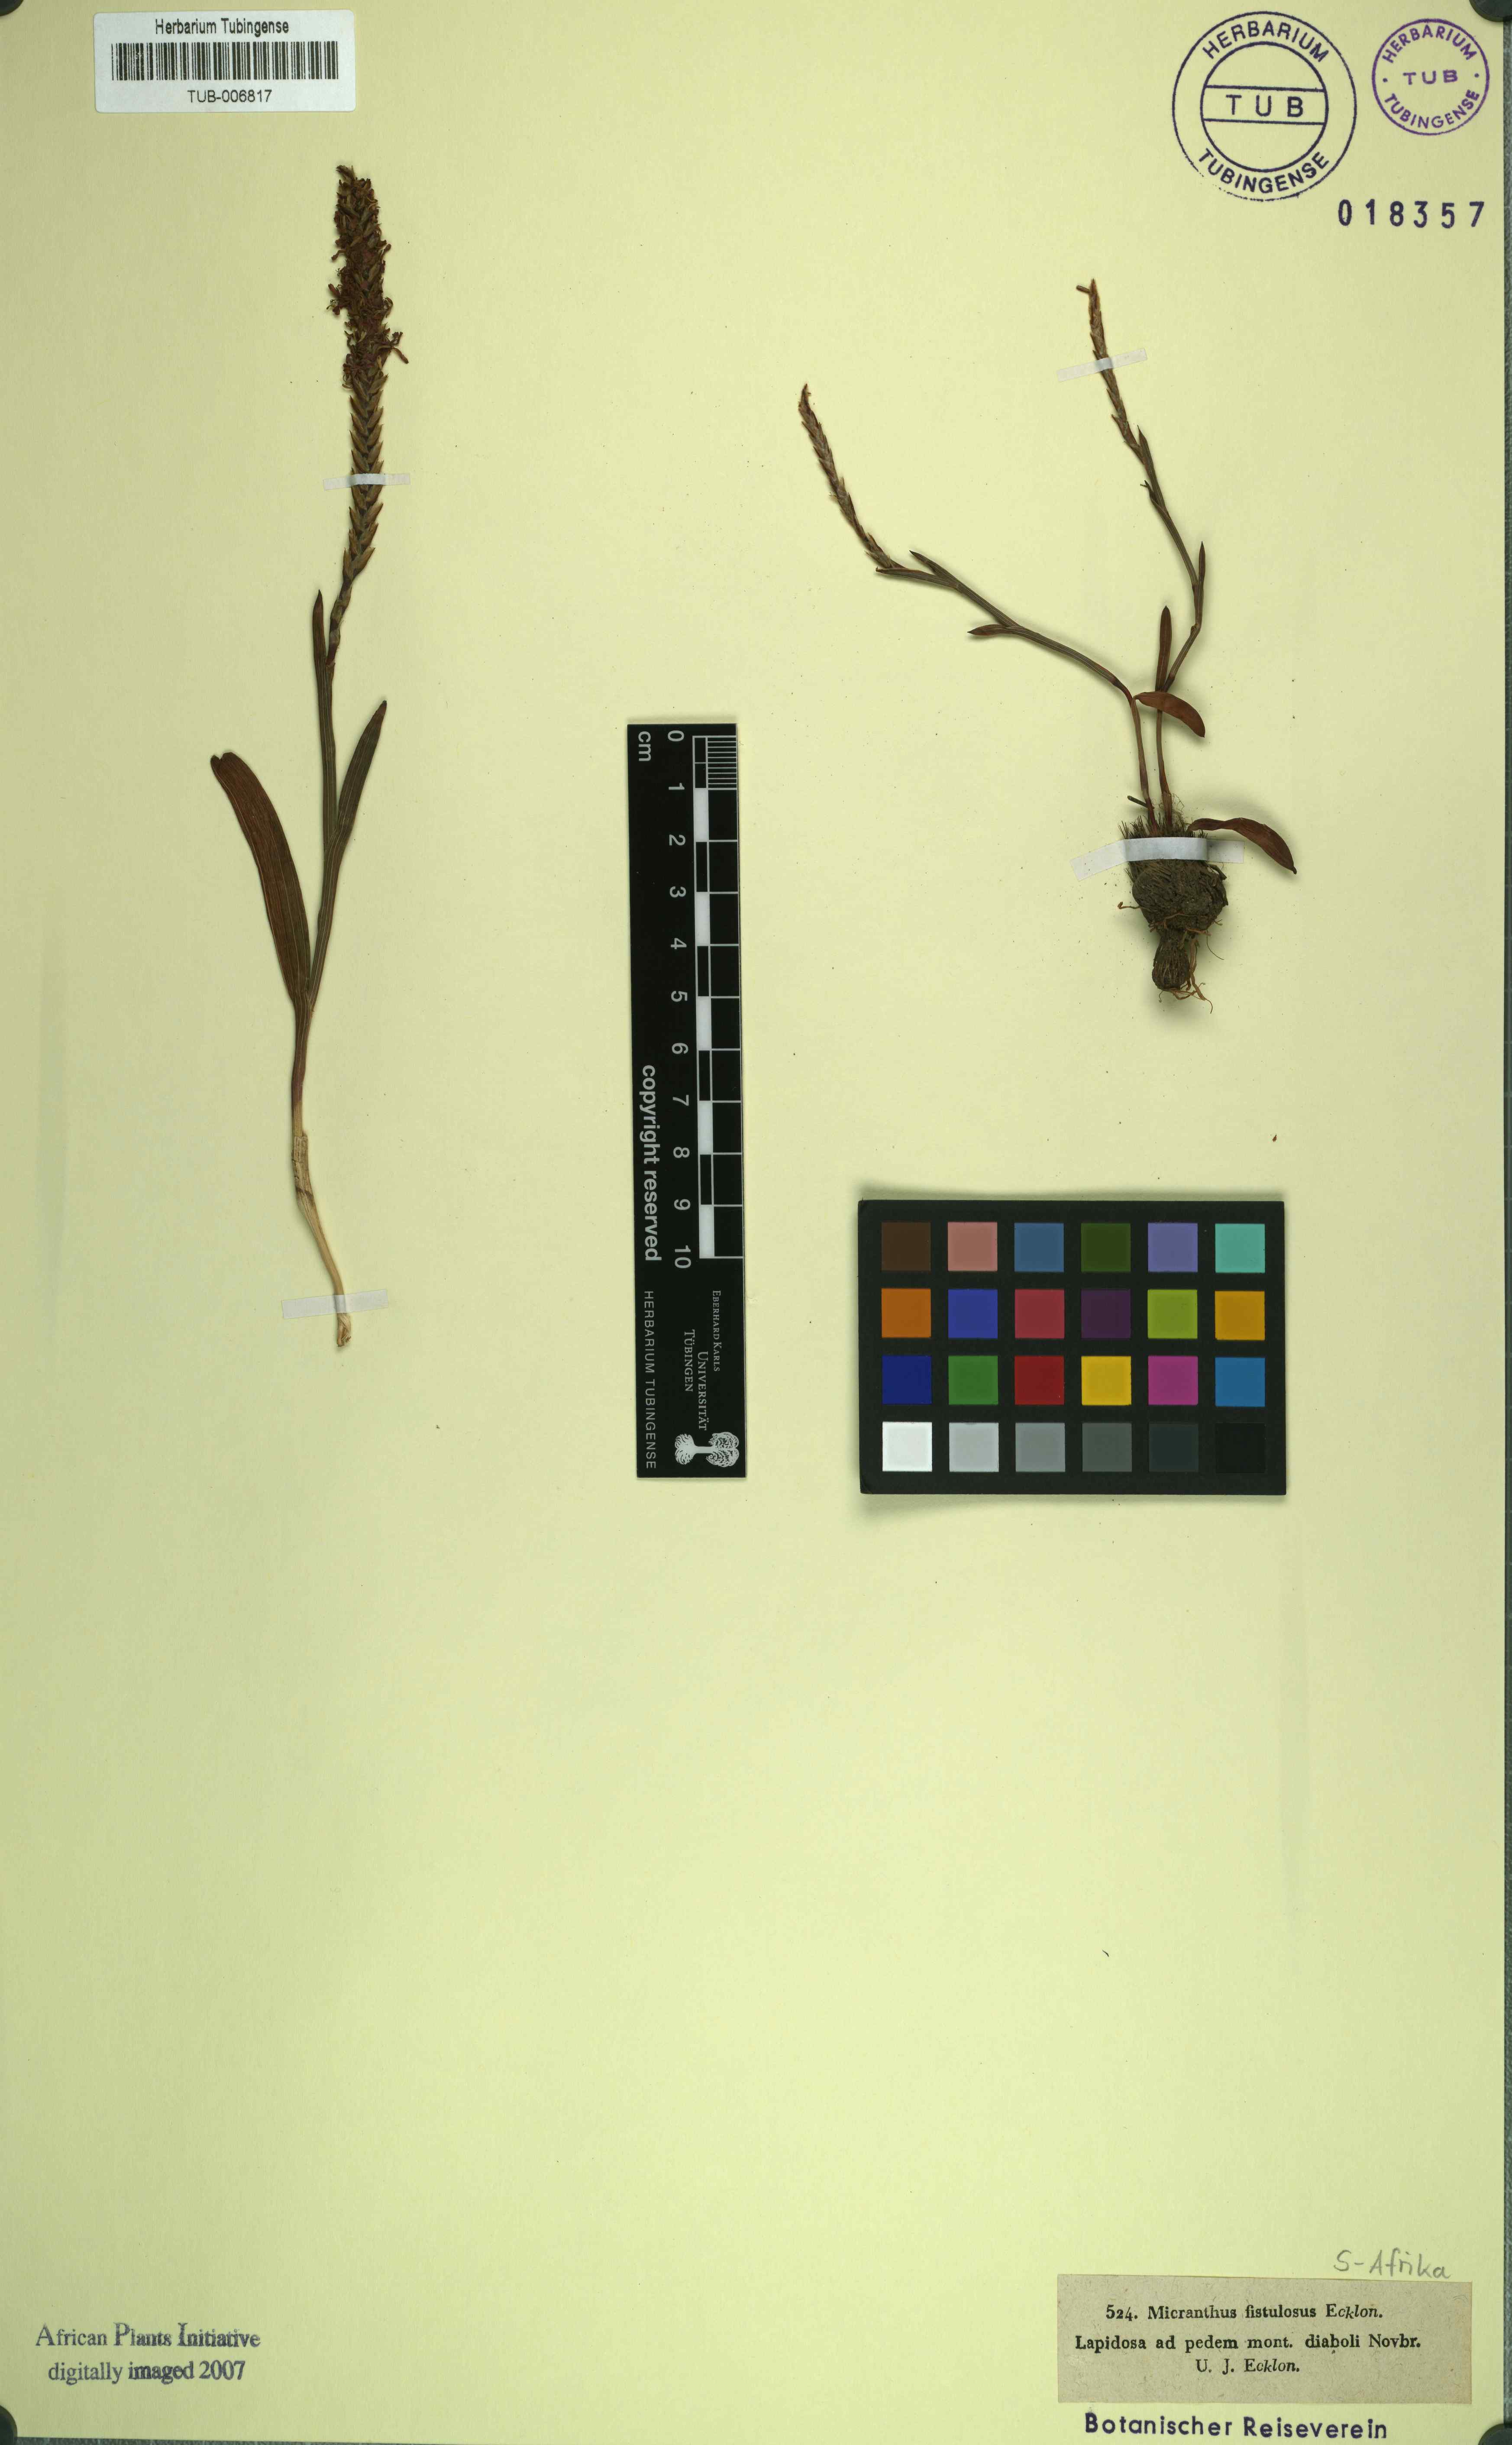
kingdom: Plantae
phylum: Tracheophyta
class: Liliopsida
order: Asparagales
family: Iridaceae
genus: Micranthus
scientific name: Micranthus alopecuroides
